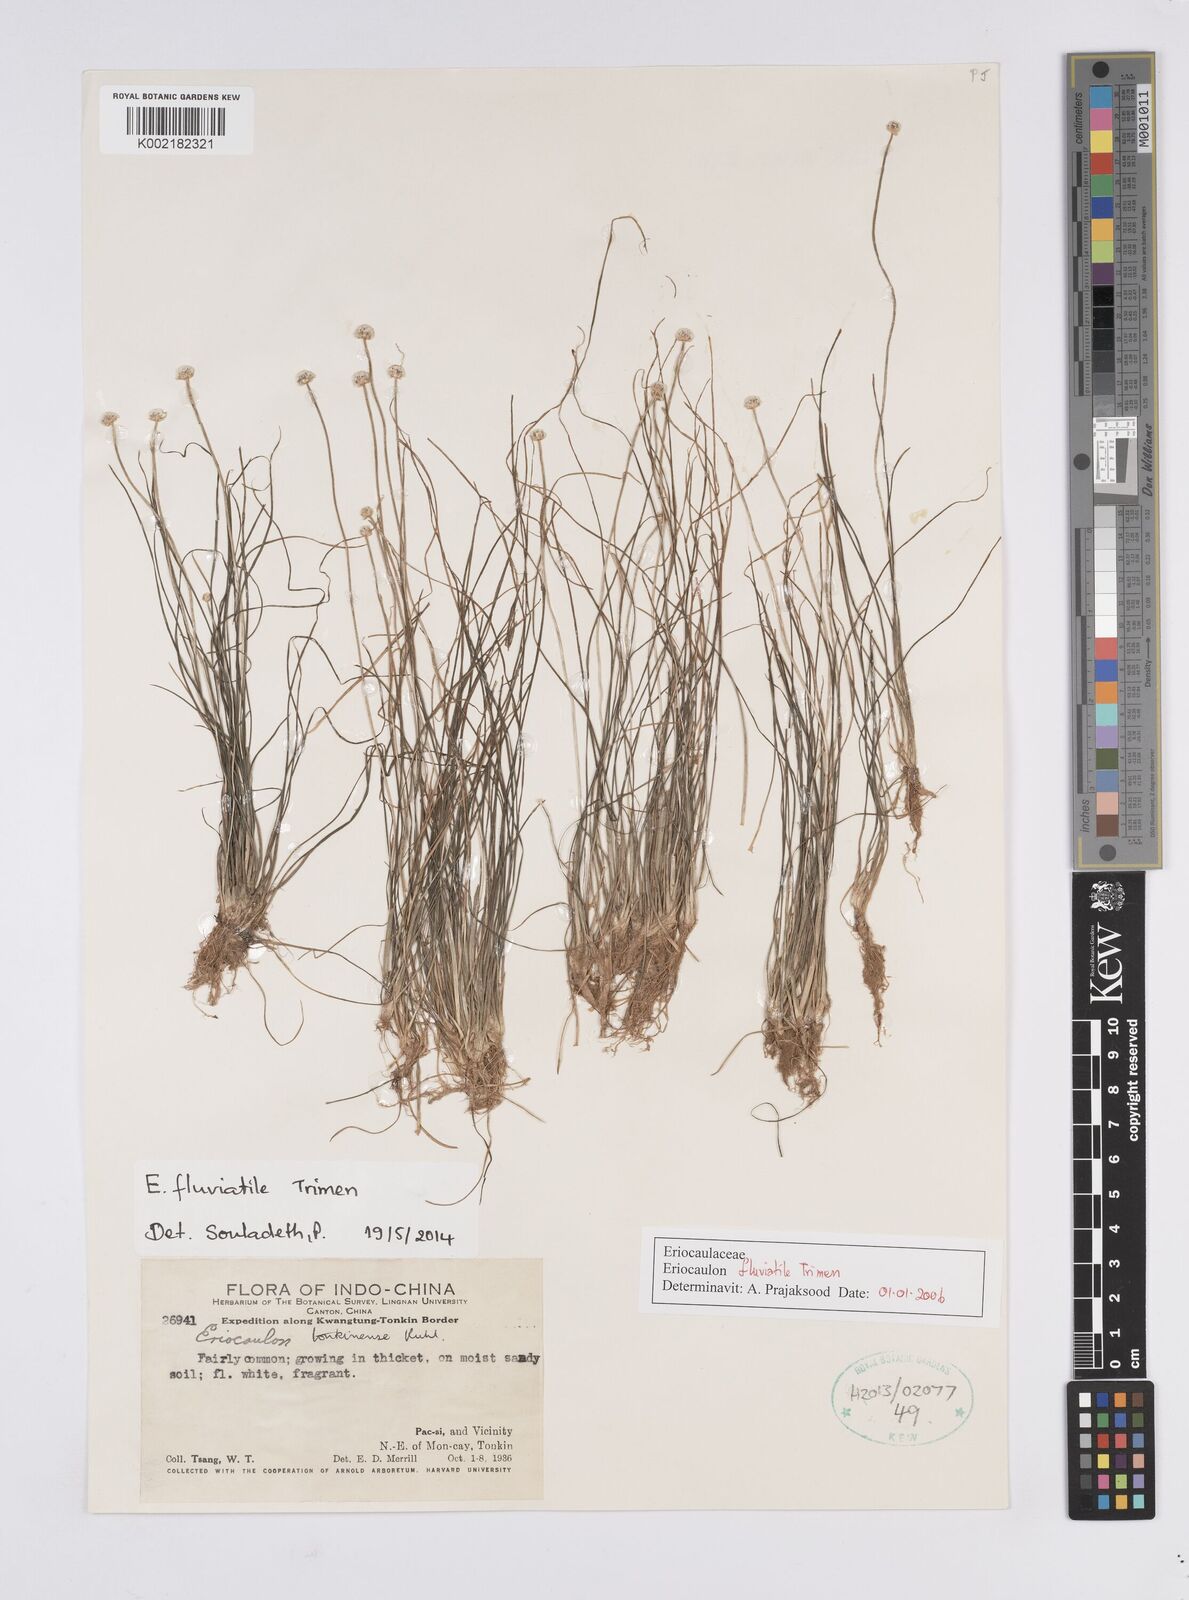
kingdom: Plantae
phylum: Tracheophyta
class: Liliopsida
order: Poales
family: Eriocaulaceae
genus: Eriocaulon
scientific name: Eriocaulon fluviatile
